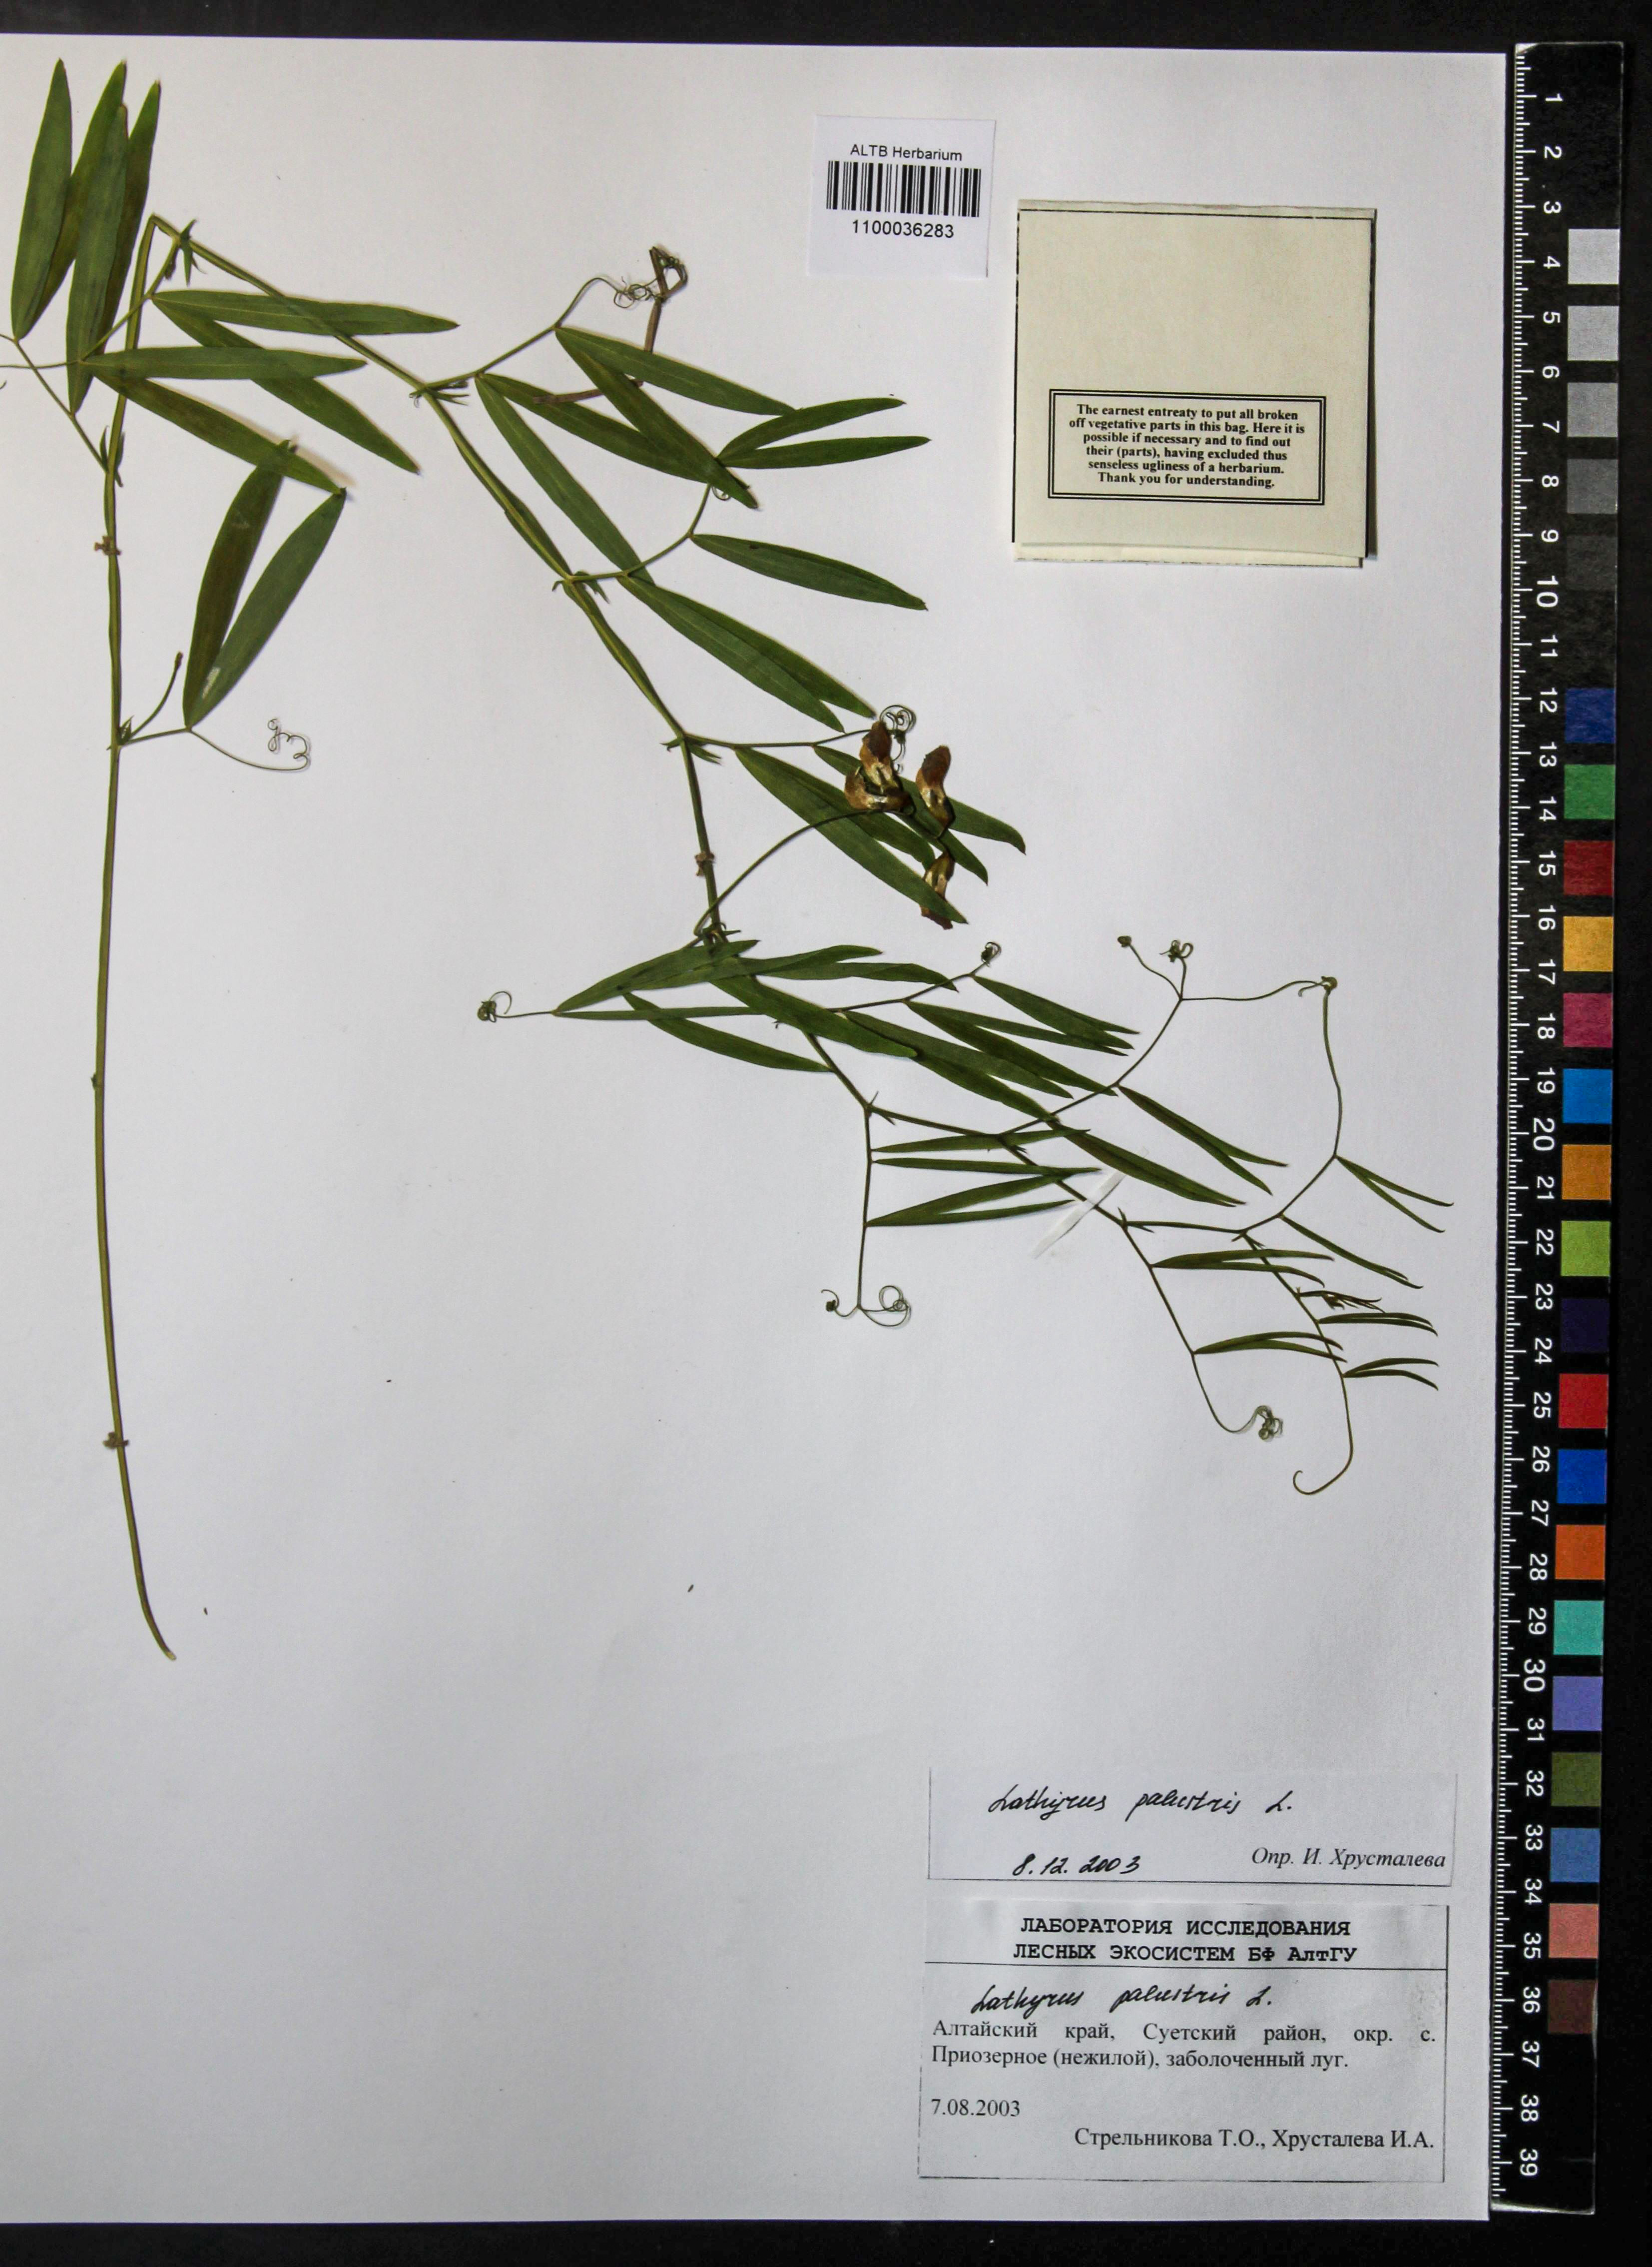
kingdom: Plantae
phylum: Tracheophyta
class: Magnoliopsida
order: Fabales
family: Fabaceae
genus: Lathyrus
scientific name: Lathyrus palustris
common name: Marsh pea
